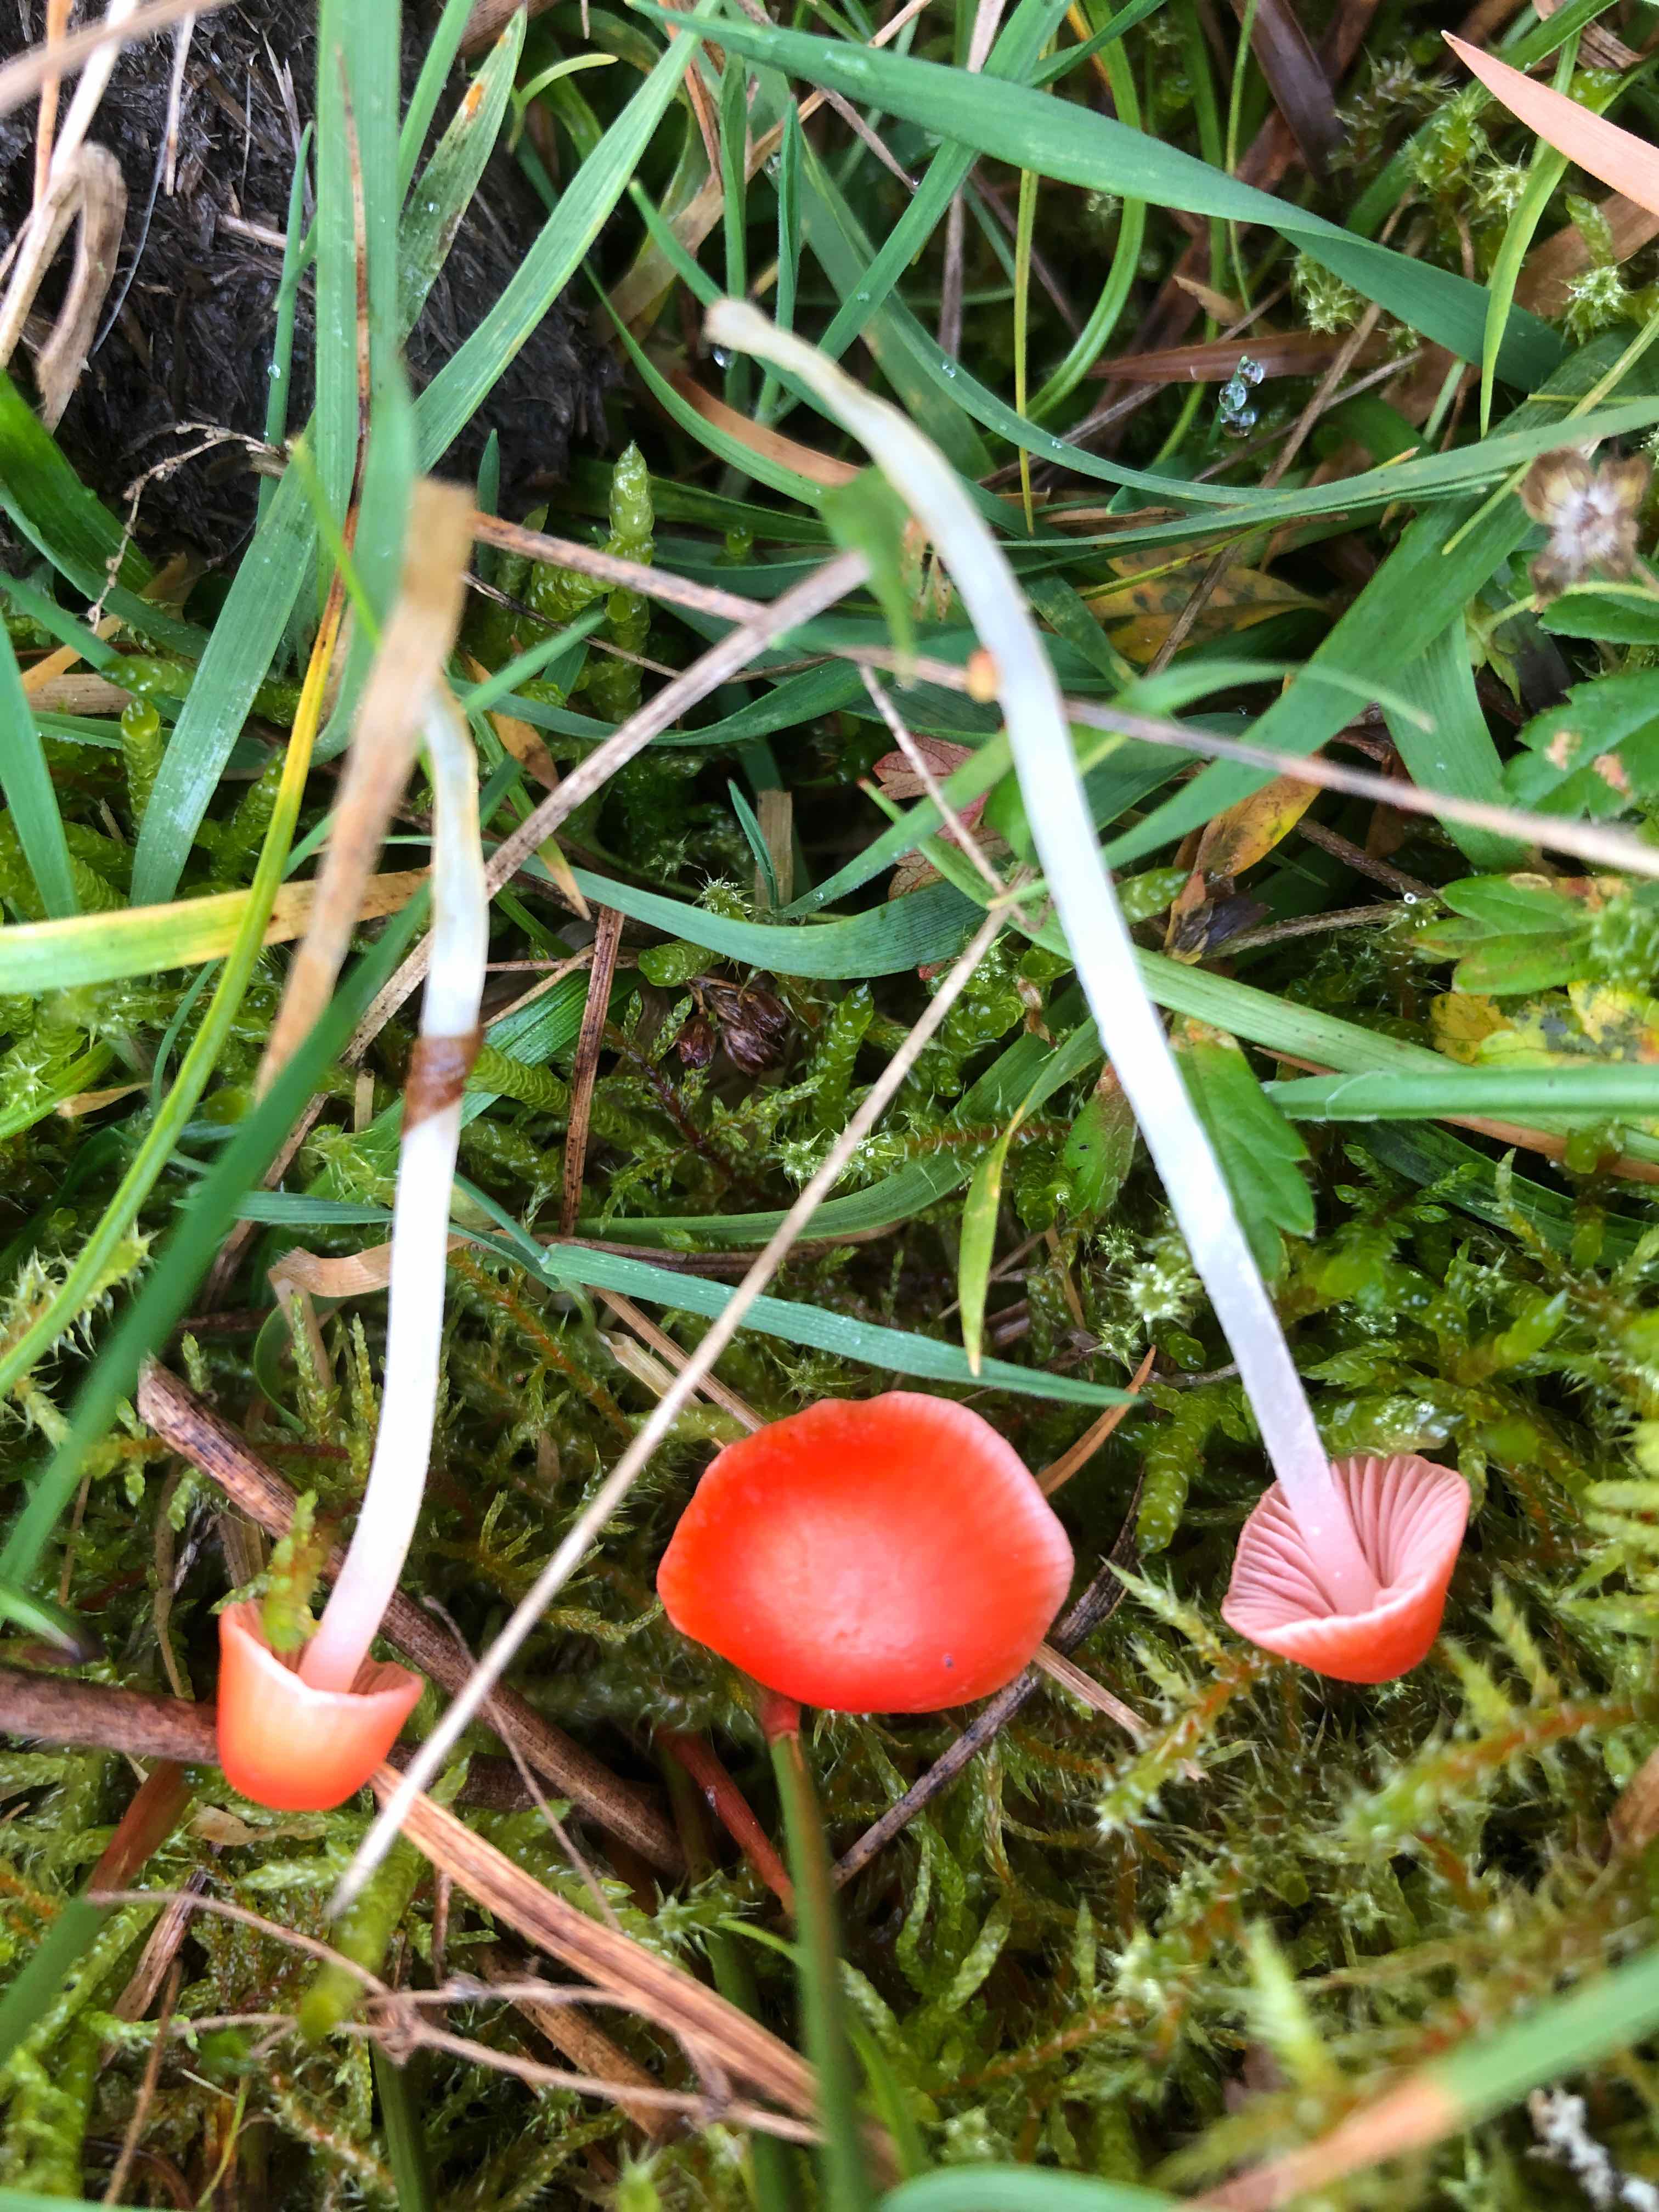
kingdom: Fungi
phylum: Basidiomycota
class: Agaricomycetes
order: Agaricales
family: Mycenaceae
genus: Atheniella
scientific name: Atheniella adonis
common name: rønnerød huesvamp
